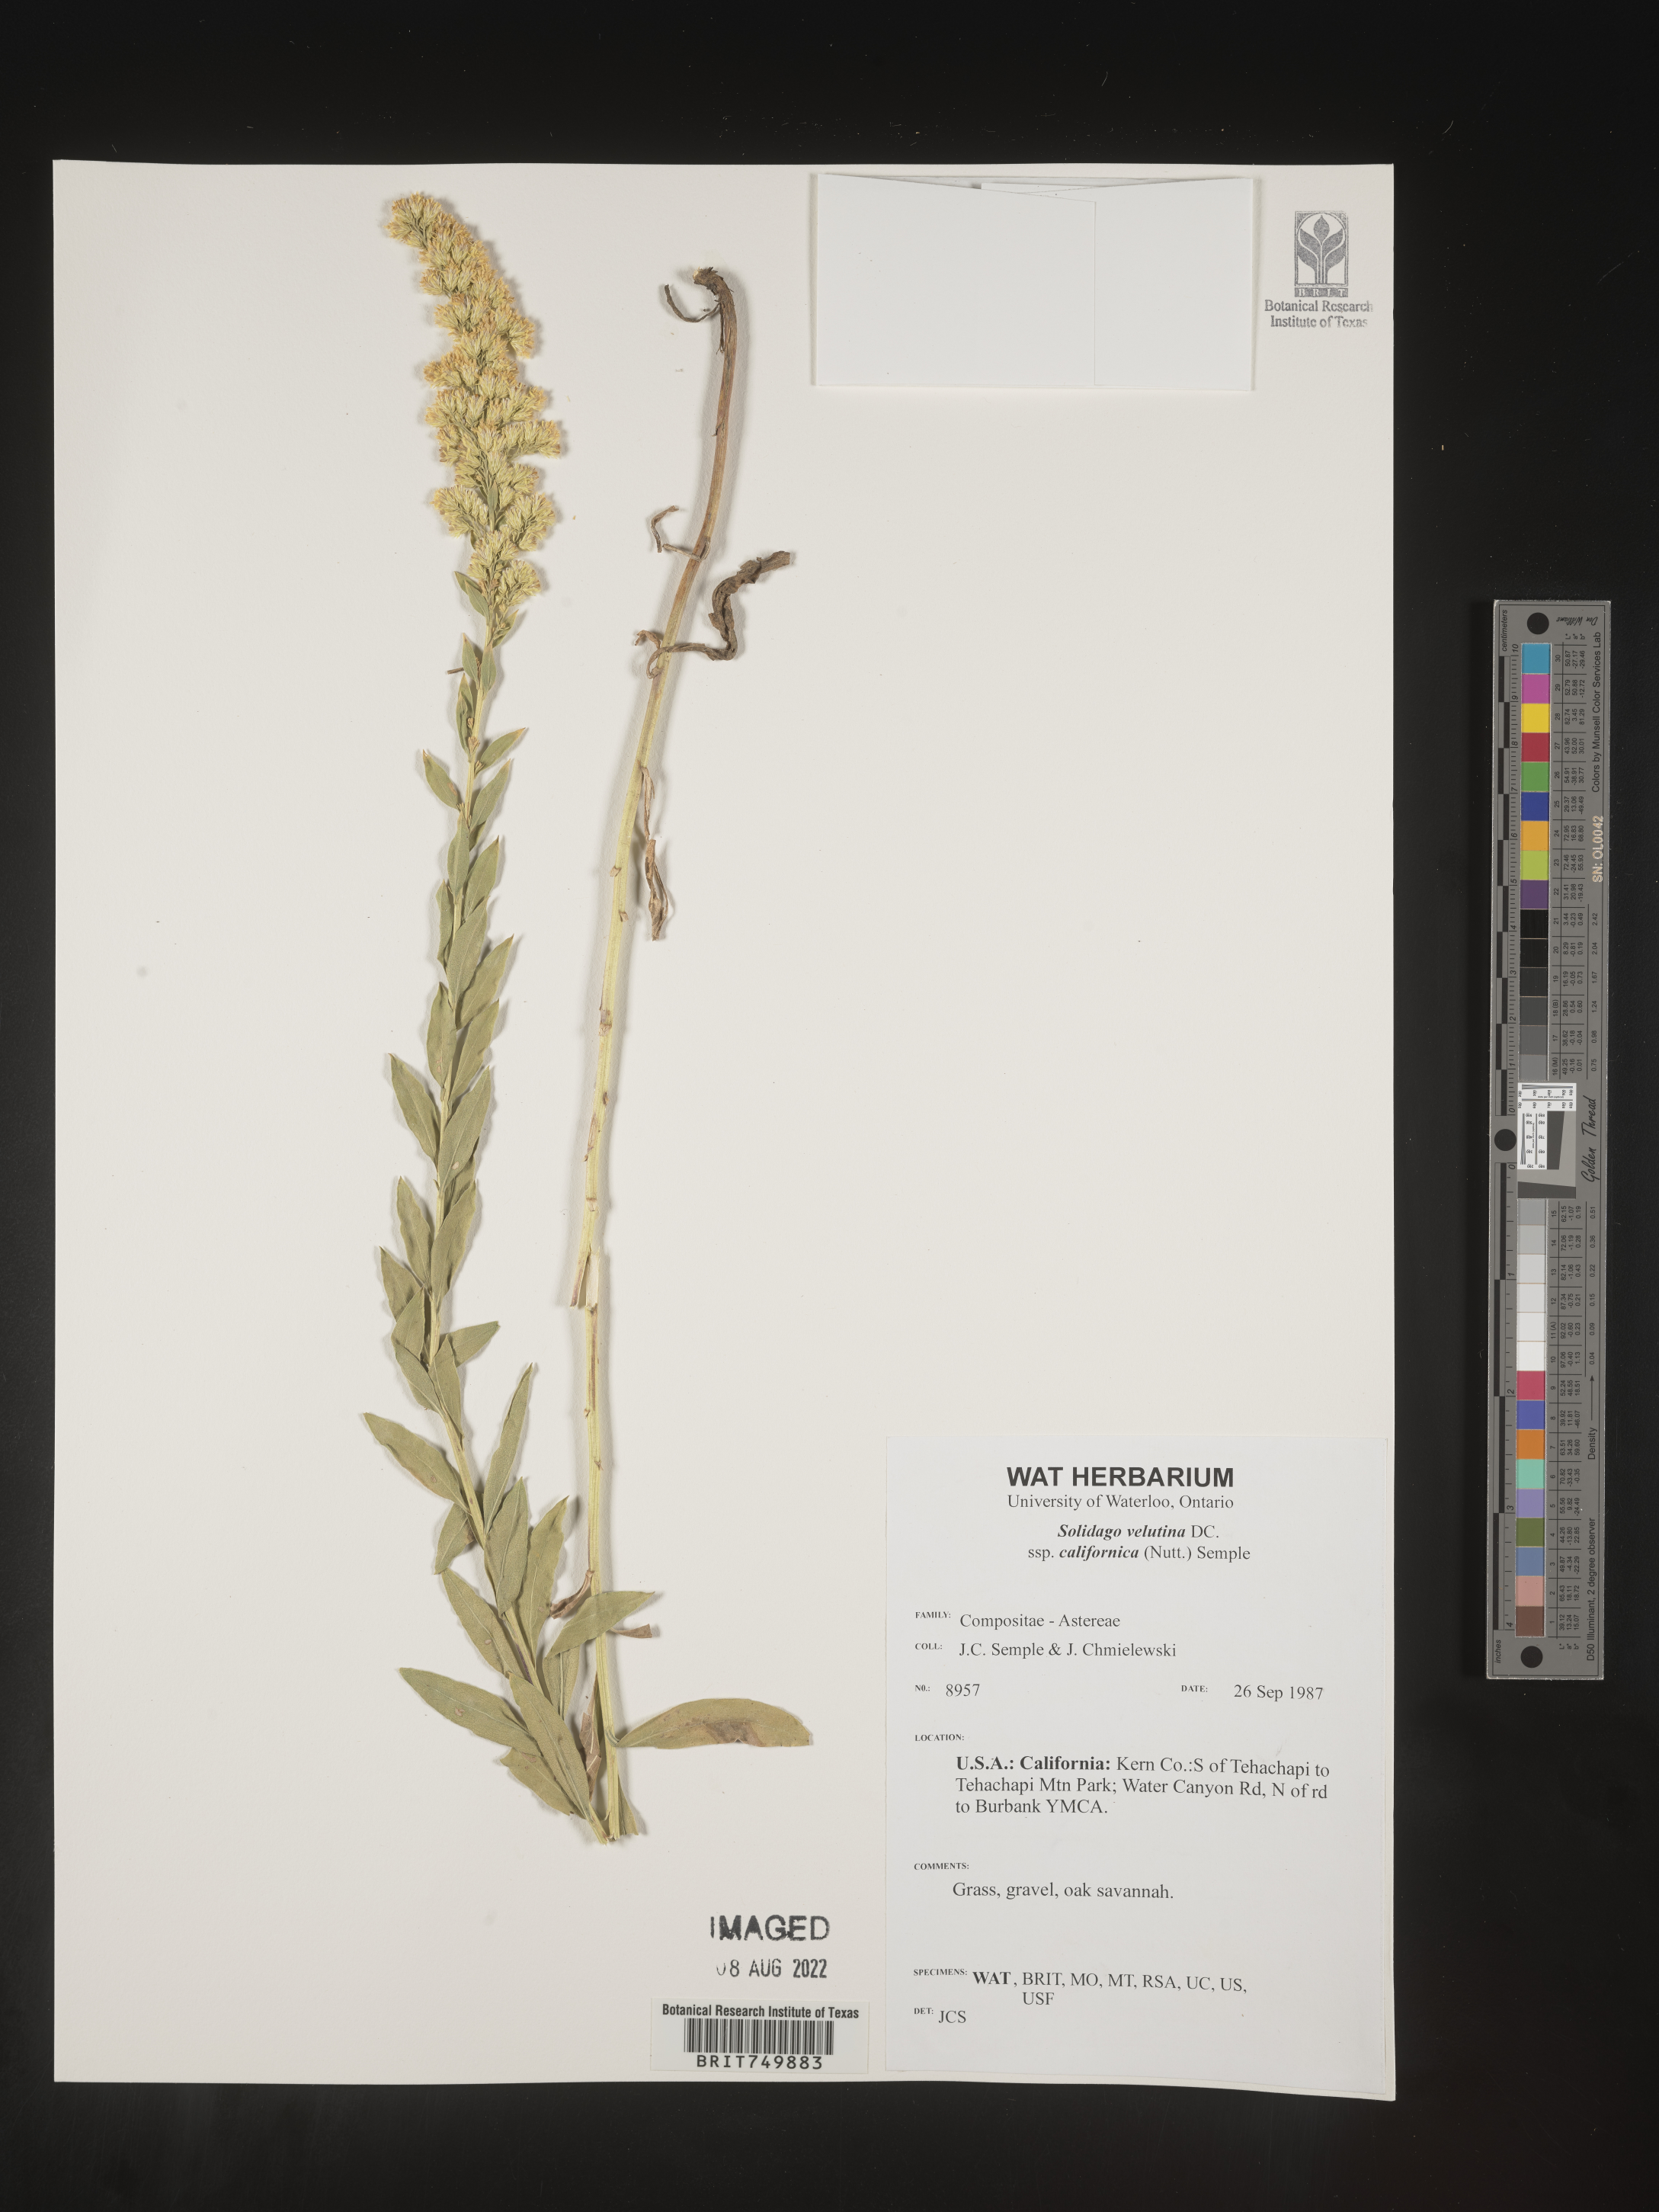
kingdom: Plantae
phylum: Tracheophyta
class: Magnoliopsida
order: Asterales
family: Asteraceae
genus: Solidago
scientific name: Solidago californica
